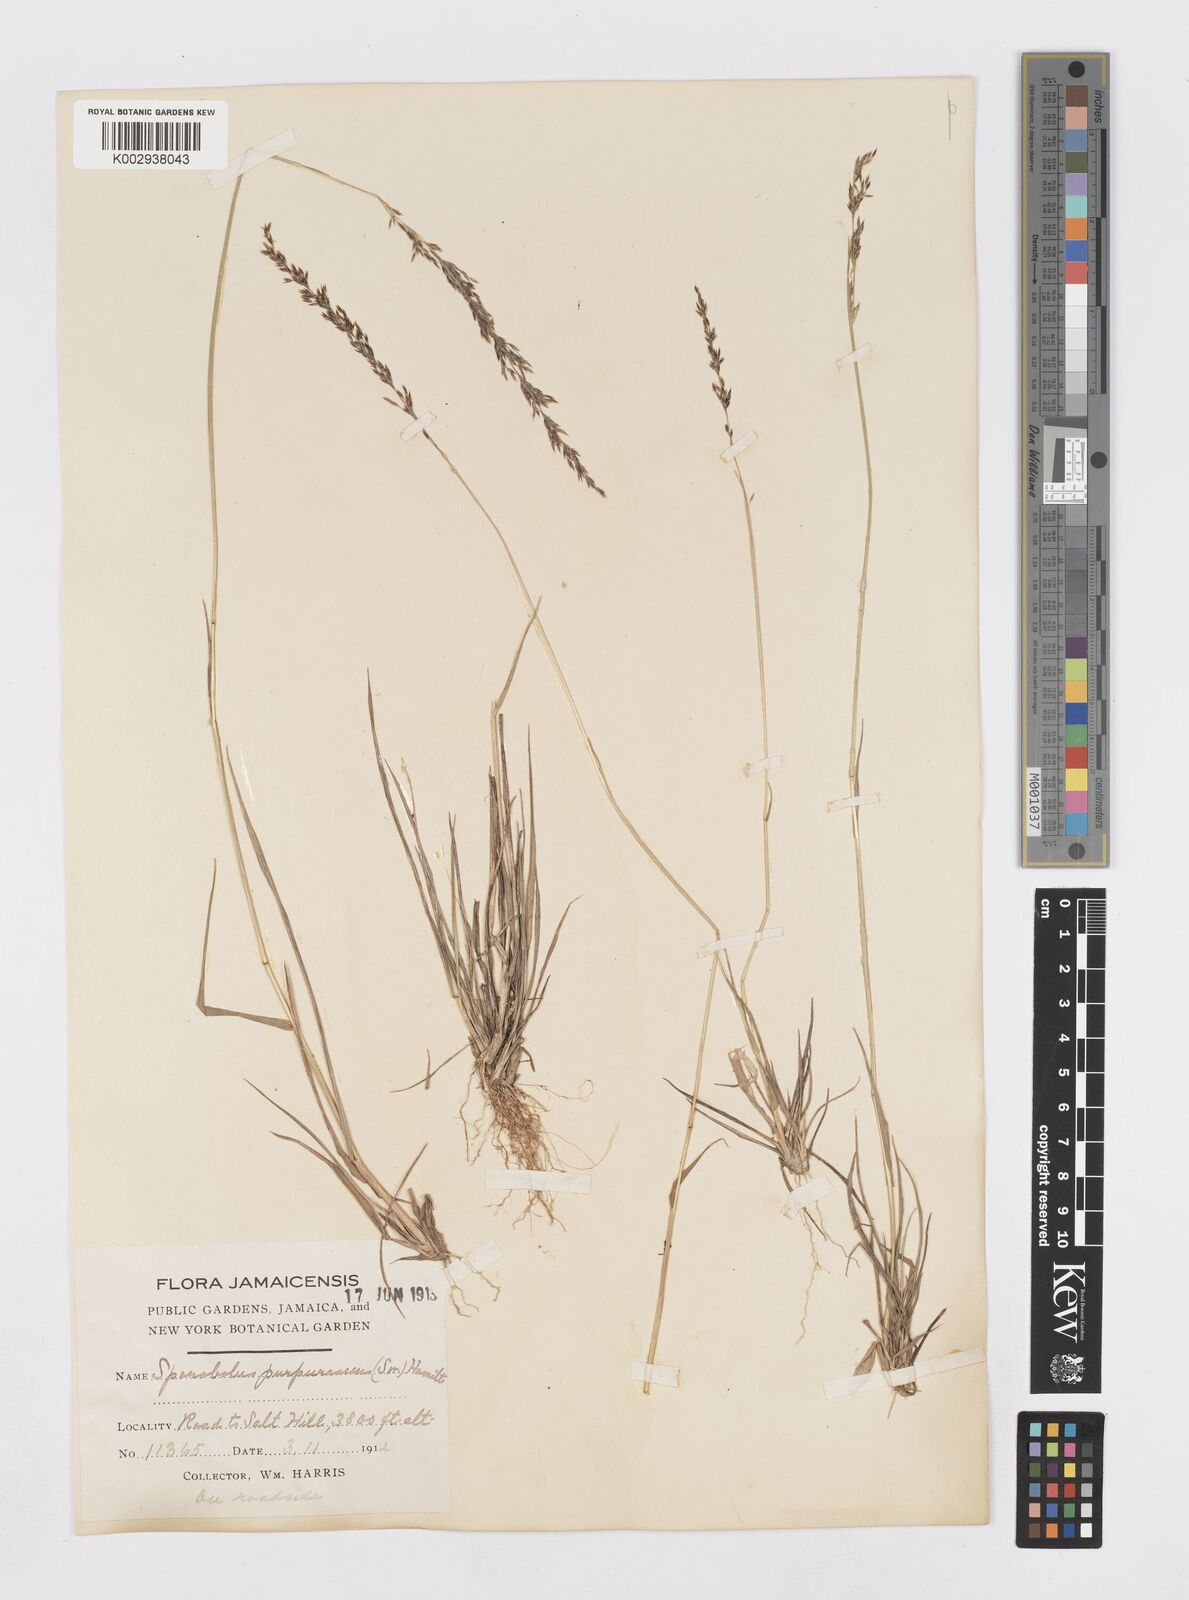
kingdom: Plantae
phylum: Tracheophyta
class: Liliopsida
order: Poales
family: Poaceae
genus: Sporobolus
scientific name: Sporobolus purpurascens
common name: Purple dropseed
